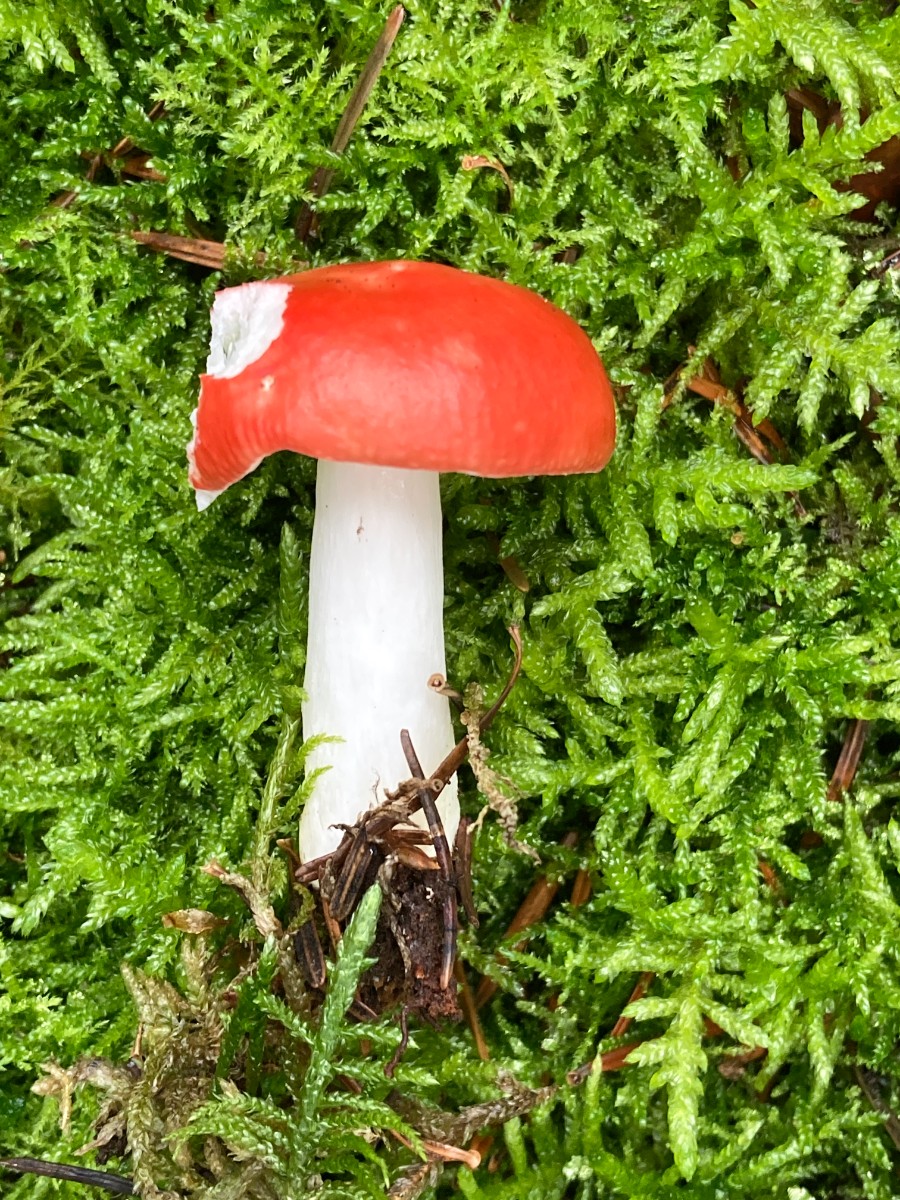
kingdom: Fungi
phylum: Basidiomycota
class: Agaricomycetes
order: Russulales
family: Russulaceae
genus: Russula
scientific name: Russula emetica
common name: stor gift-skørhat
